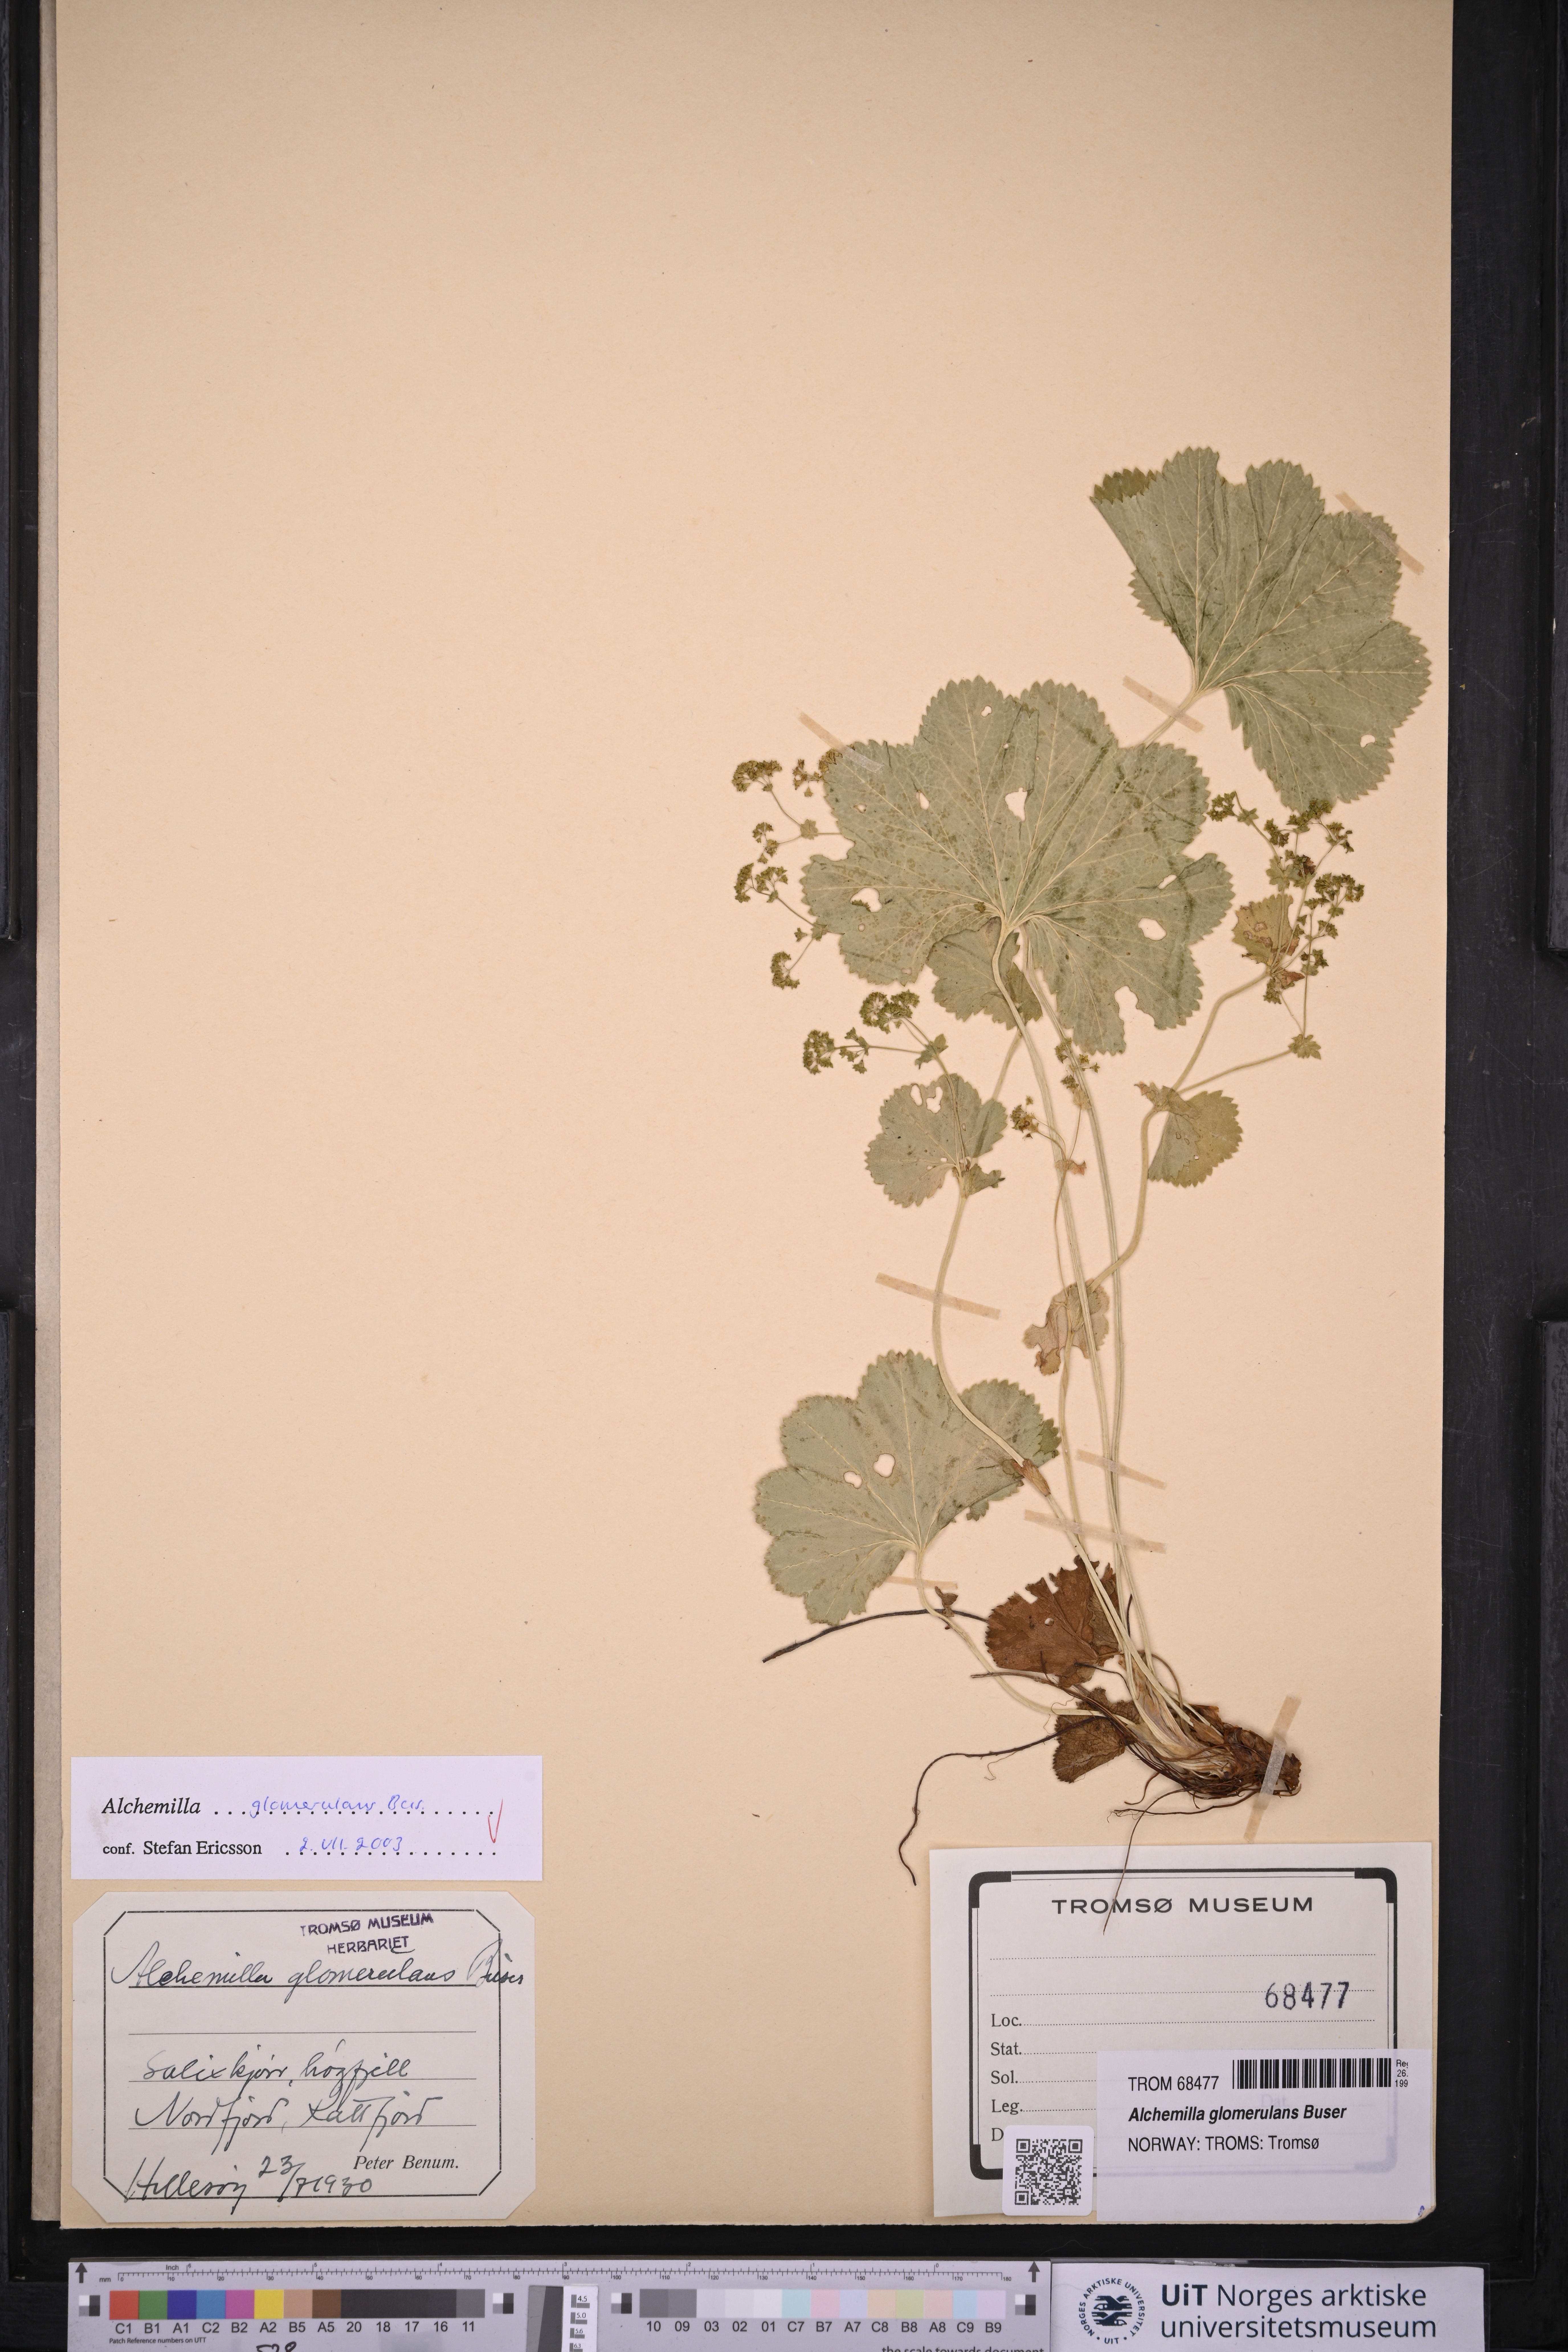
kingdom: Plantae
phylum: Tracheophyta
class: Magnoliopsida
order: Rosales
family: Rosaceae
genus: Alchemilla
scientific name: Alchemilla glomerulans
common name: Clustered lady's mantle
